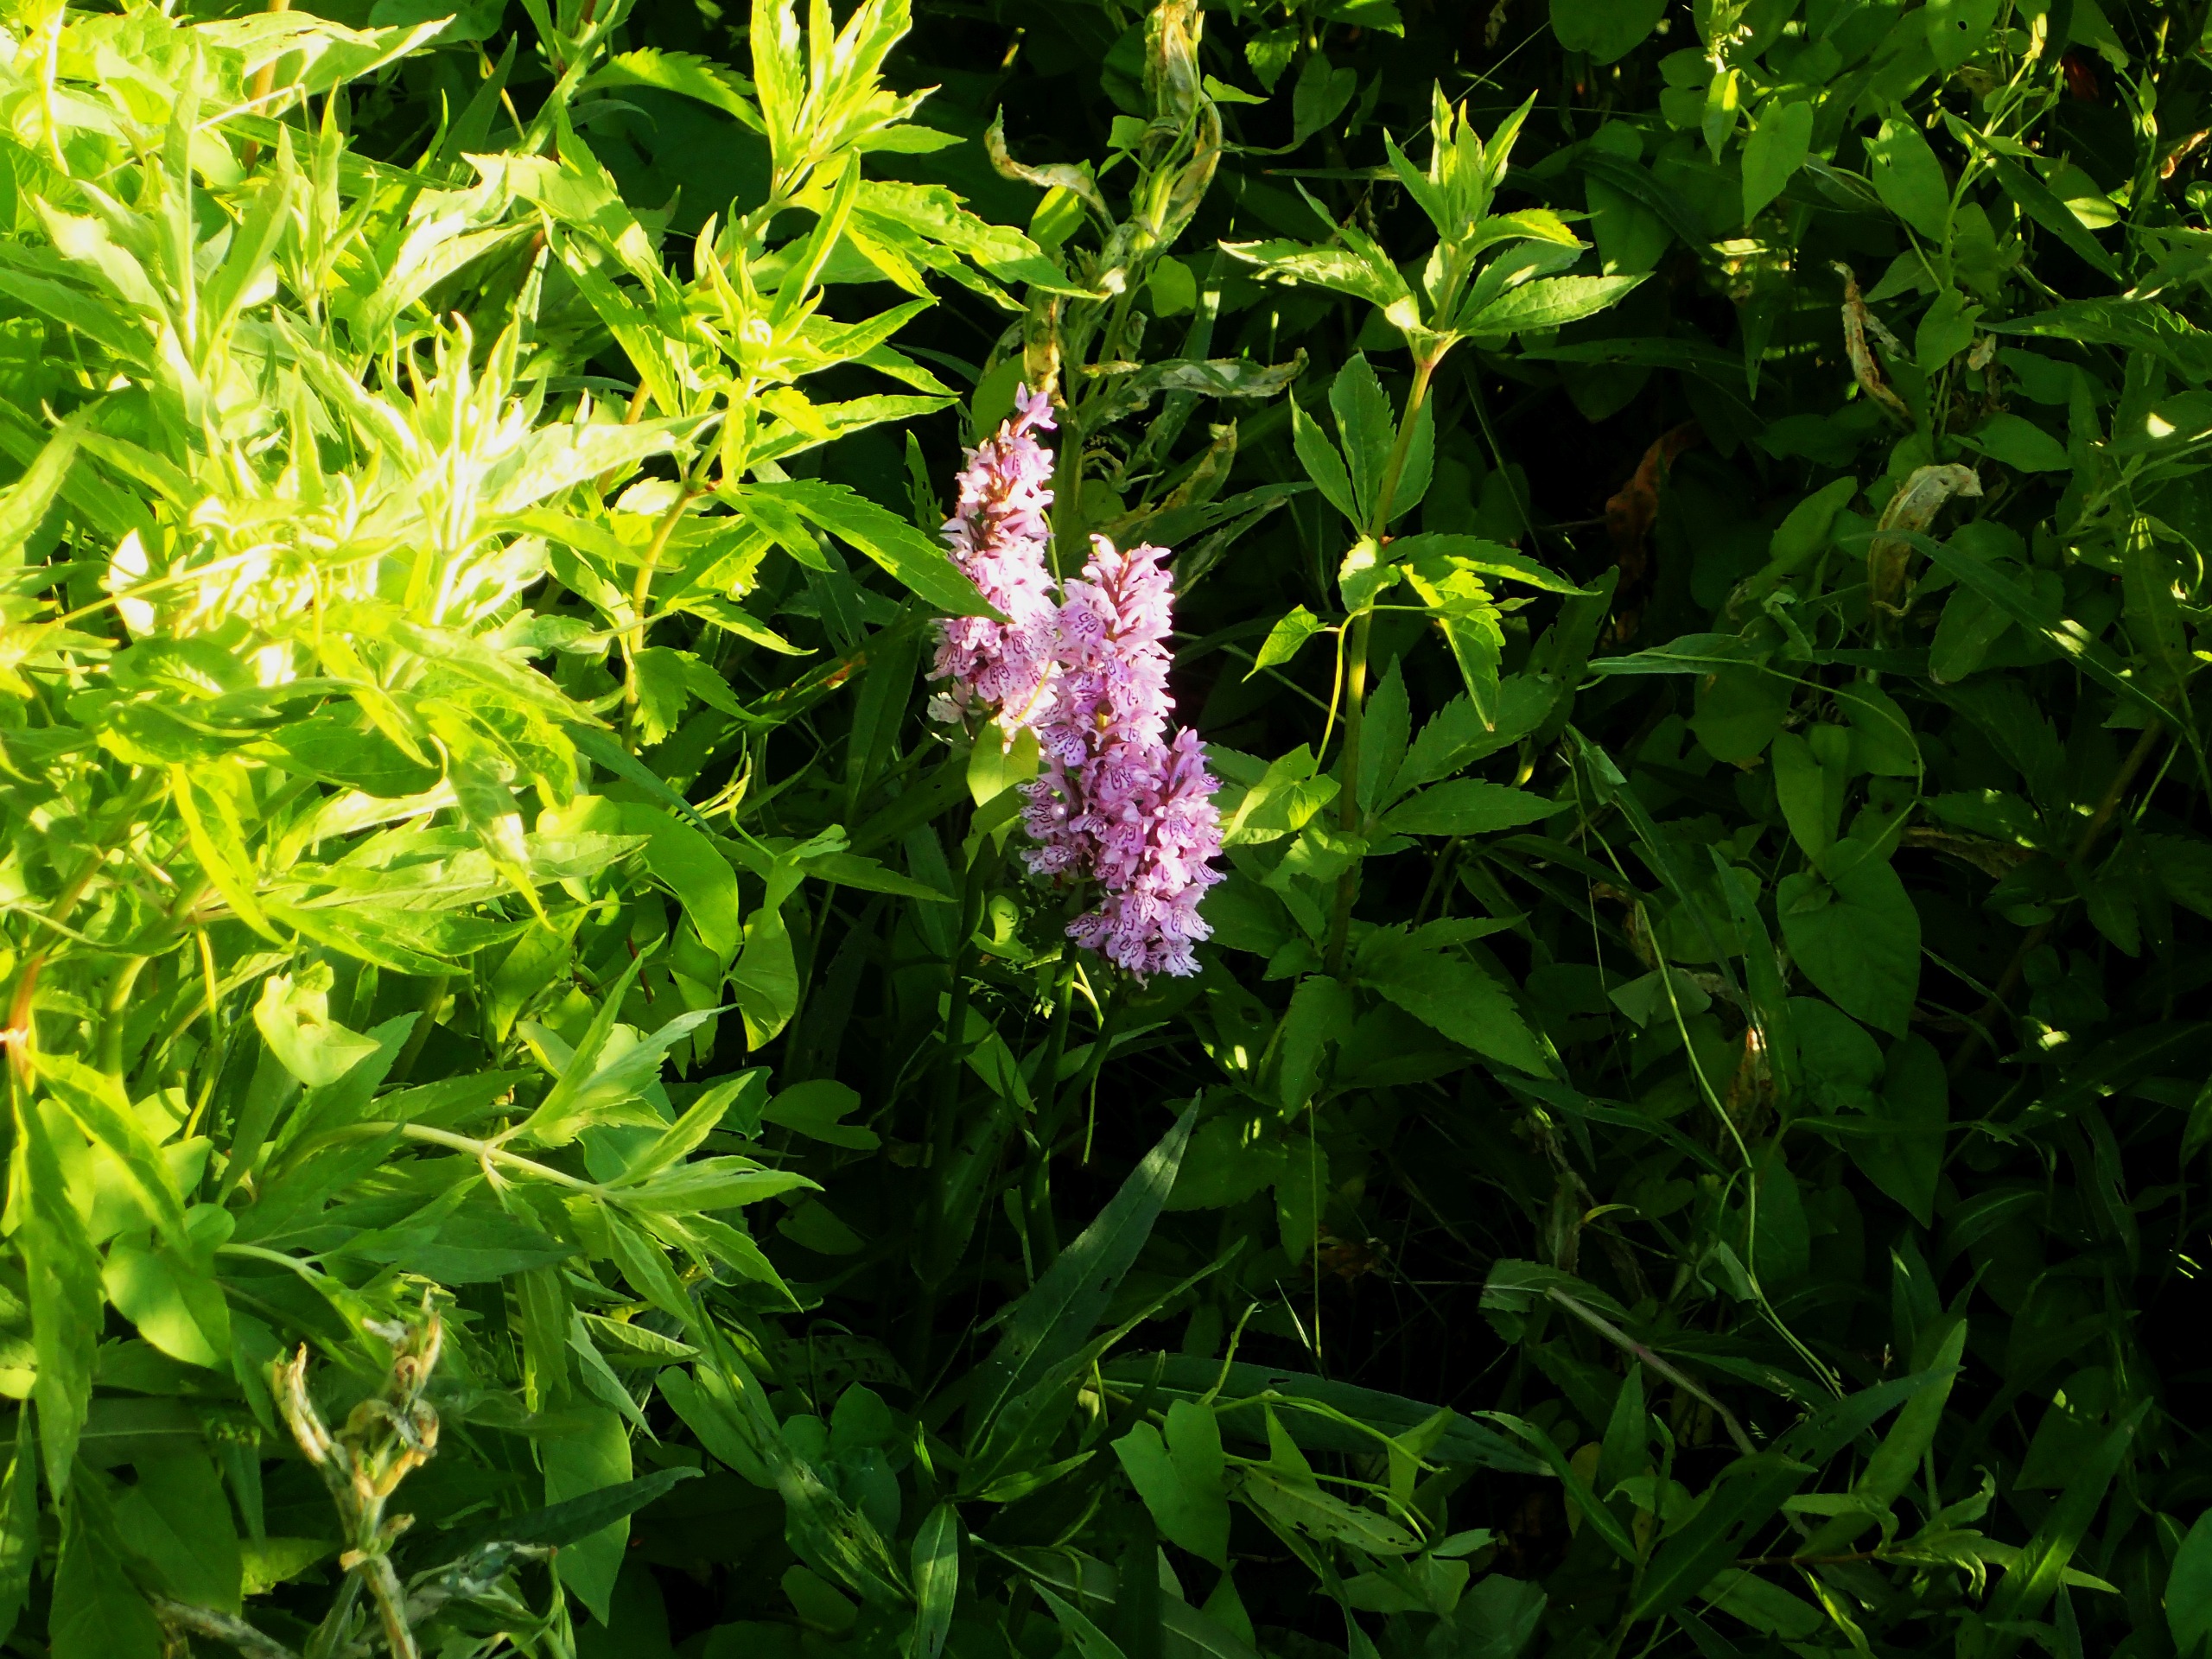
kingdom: Plantae
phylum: Tracheophyta
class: Liliopsida
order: Asparagales
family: Orchidaceae
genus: Dactylorhiza
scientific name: Dactylorhiza maculata
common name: Skov-gøgeurt
